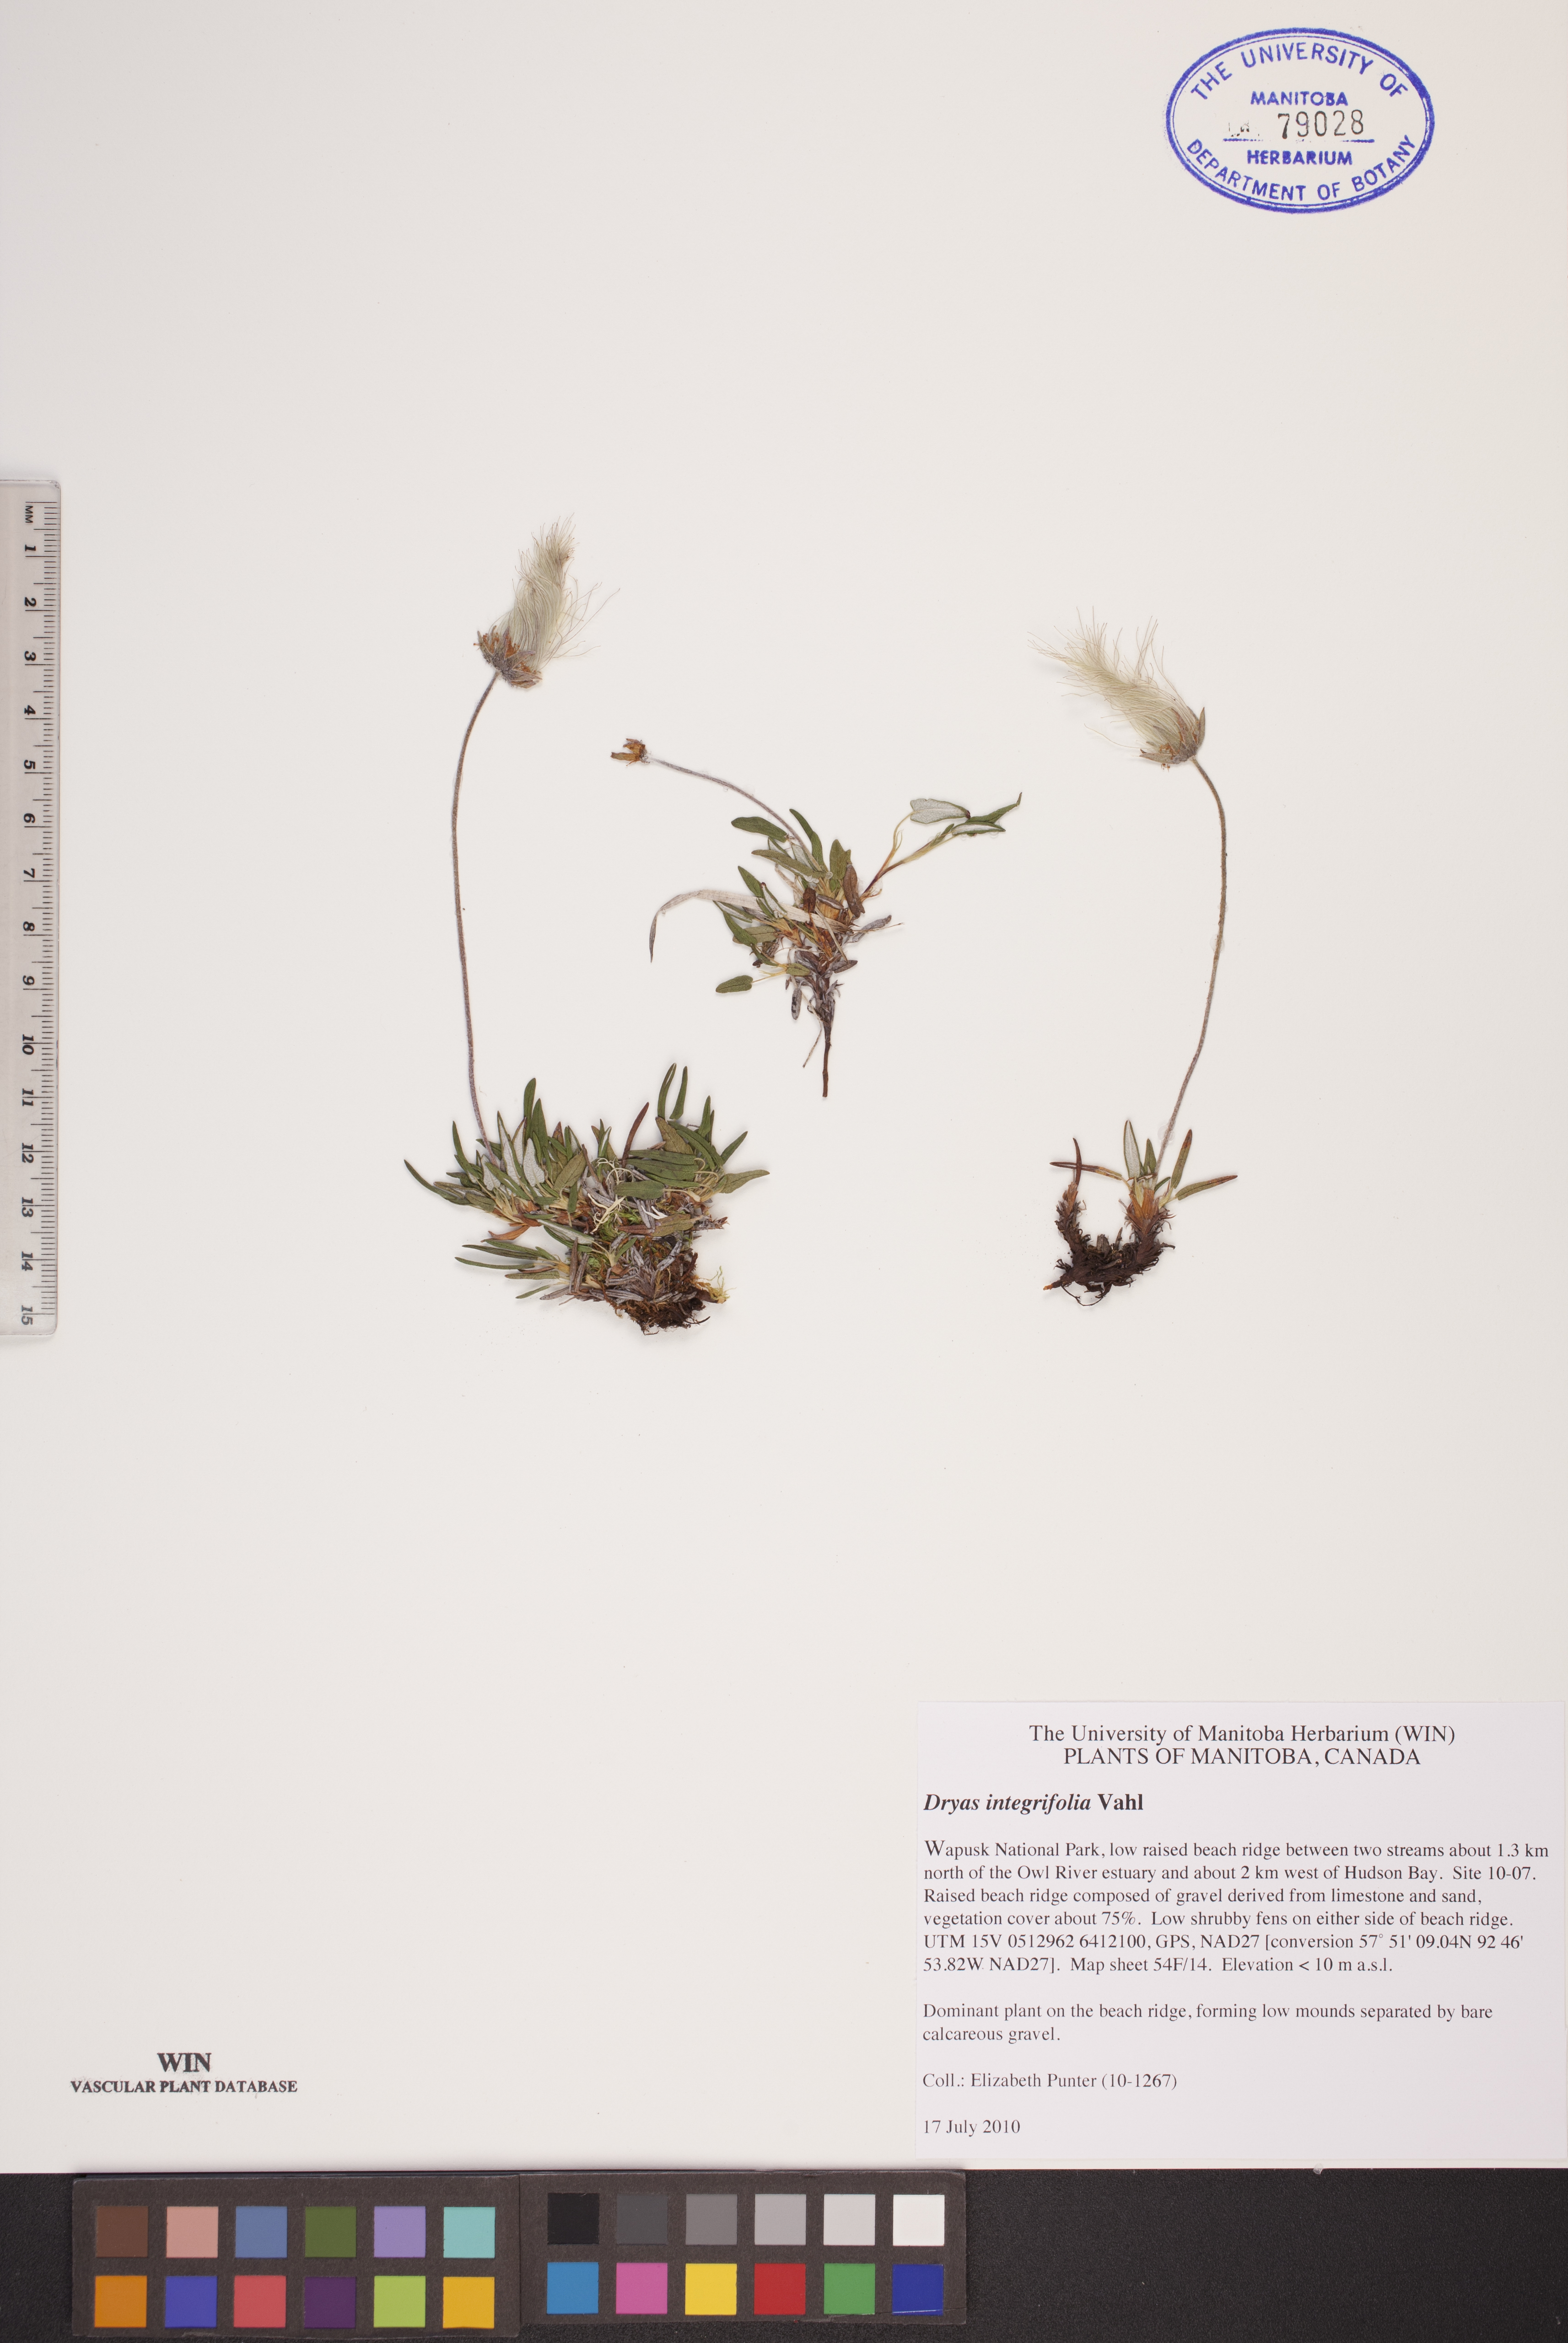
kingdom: Plantae
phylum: Tracheophyta
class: Magnoliopsida
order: Rosales
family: Rosaceae
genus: Dryas
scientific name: Dryas integrifolia
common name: Entire-leaved mountain avens
